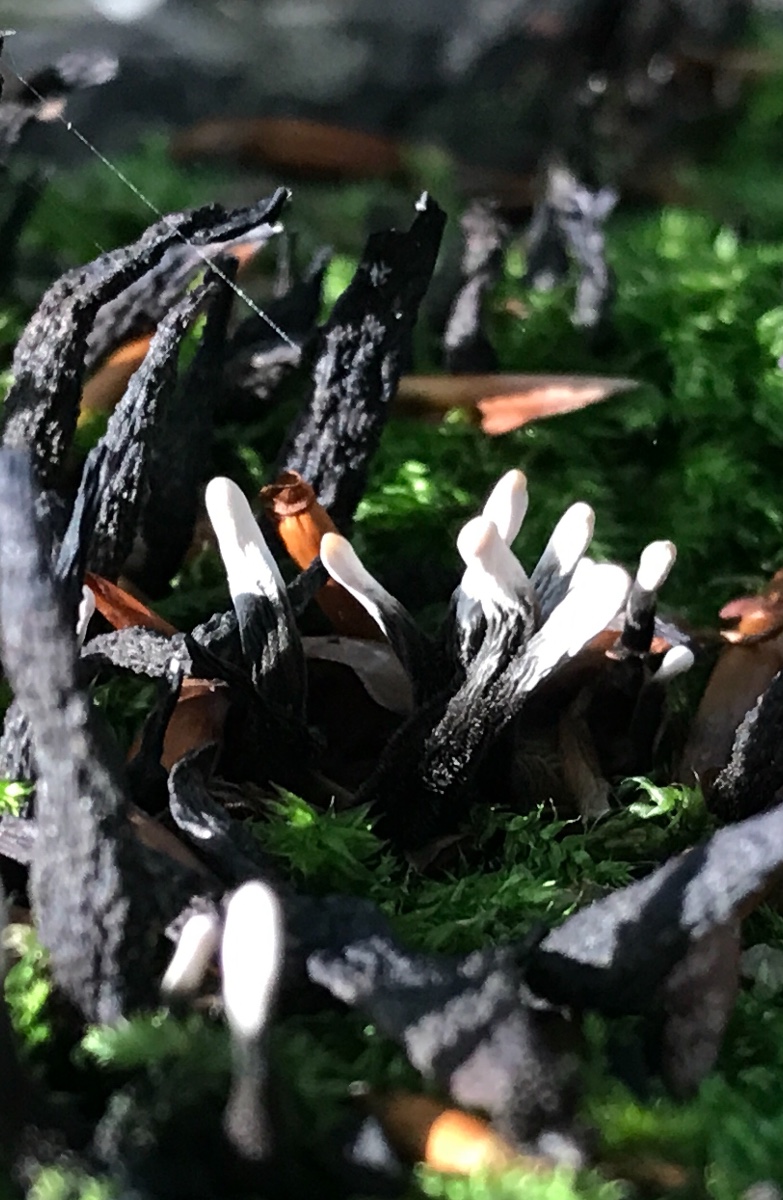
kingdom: Fungi
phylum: Ascomycota
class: Sordariomycetes
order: Xylariales
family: Xylariaceae
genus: Xylaria
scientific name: Xylaria hypoxylon
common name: grenet stødsvamp
